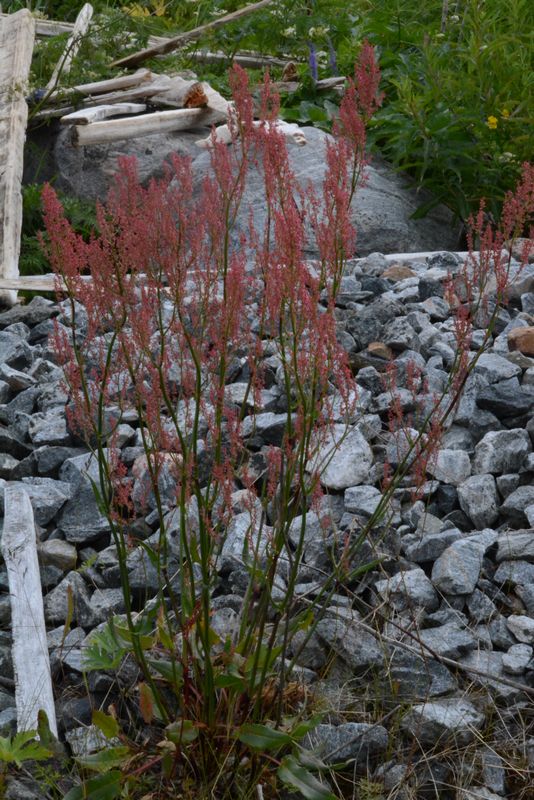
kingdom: Plantae
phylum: Tracheophyta
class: Magnoliopsida
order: Caryophyllales
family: Polygonaceae
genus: Rumex
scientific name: Rumex thyrsiflorus
